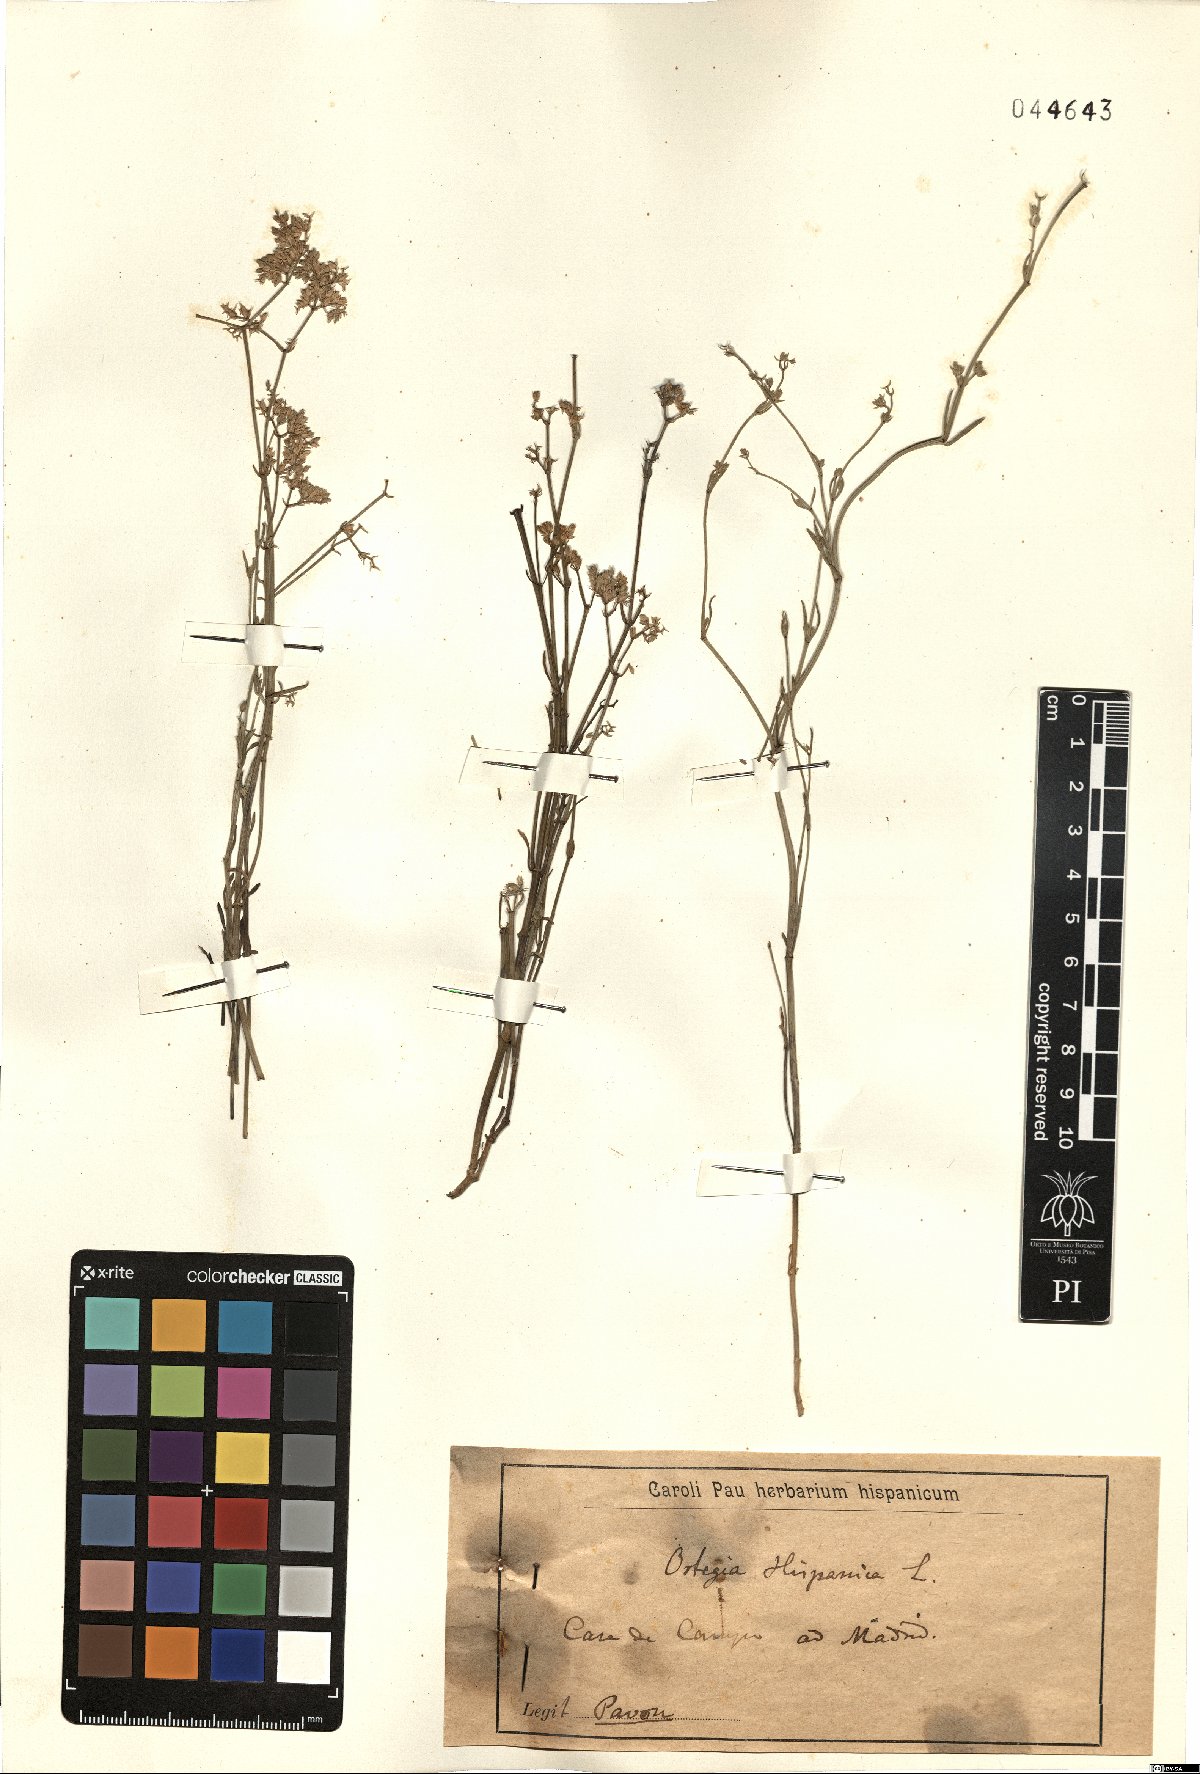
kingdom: Plantae
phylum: Tracheophyta
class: Magnoliopsida
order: Caryophyllales
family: Caryophyllaceae
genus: Ortegia
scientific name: Ortegia hispanica
